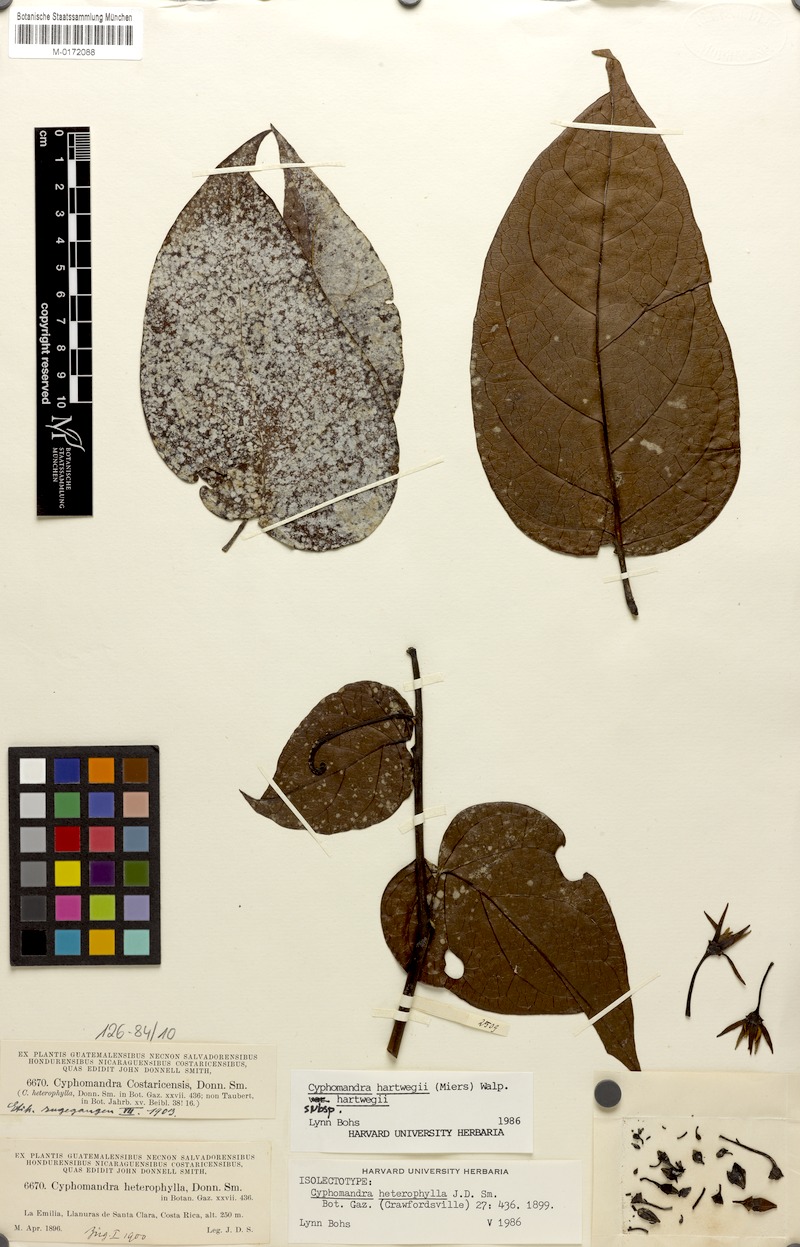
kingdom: Plantae
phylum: Tracheophyta
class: Magnoliopsida
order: Solanales
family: Solanaceae
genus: Solanum
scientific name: Solanum splendens
